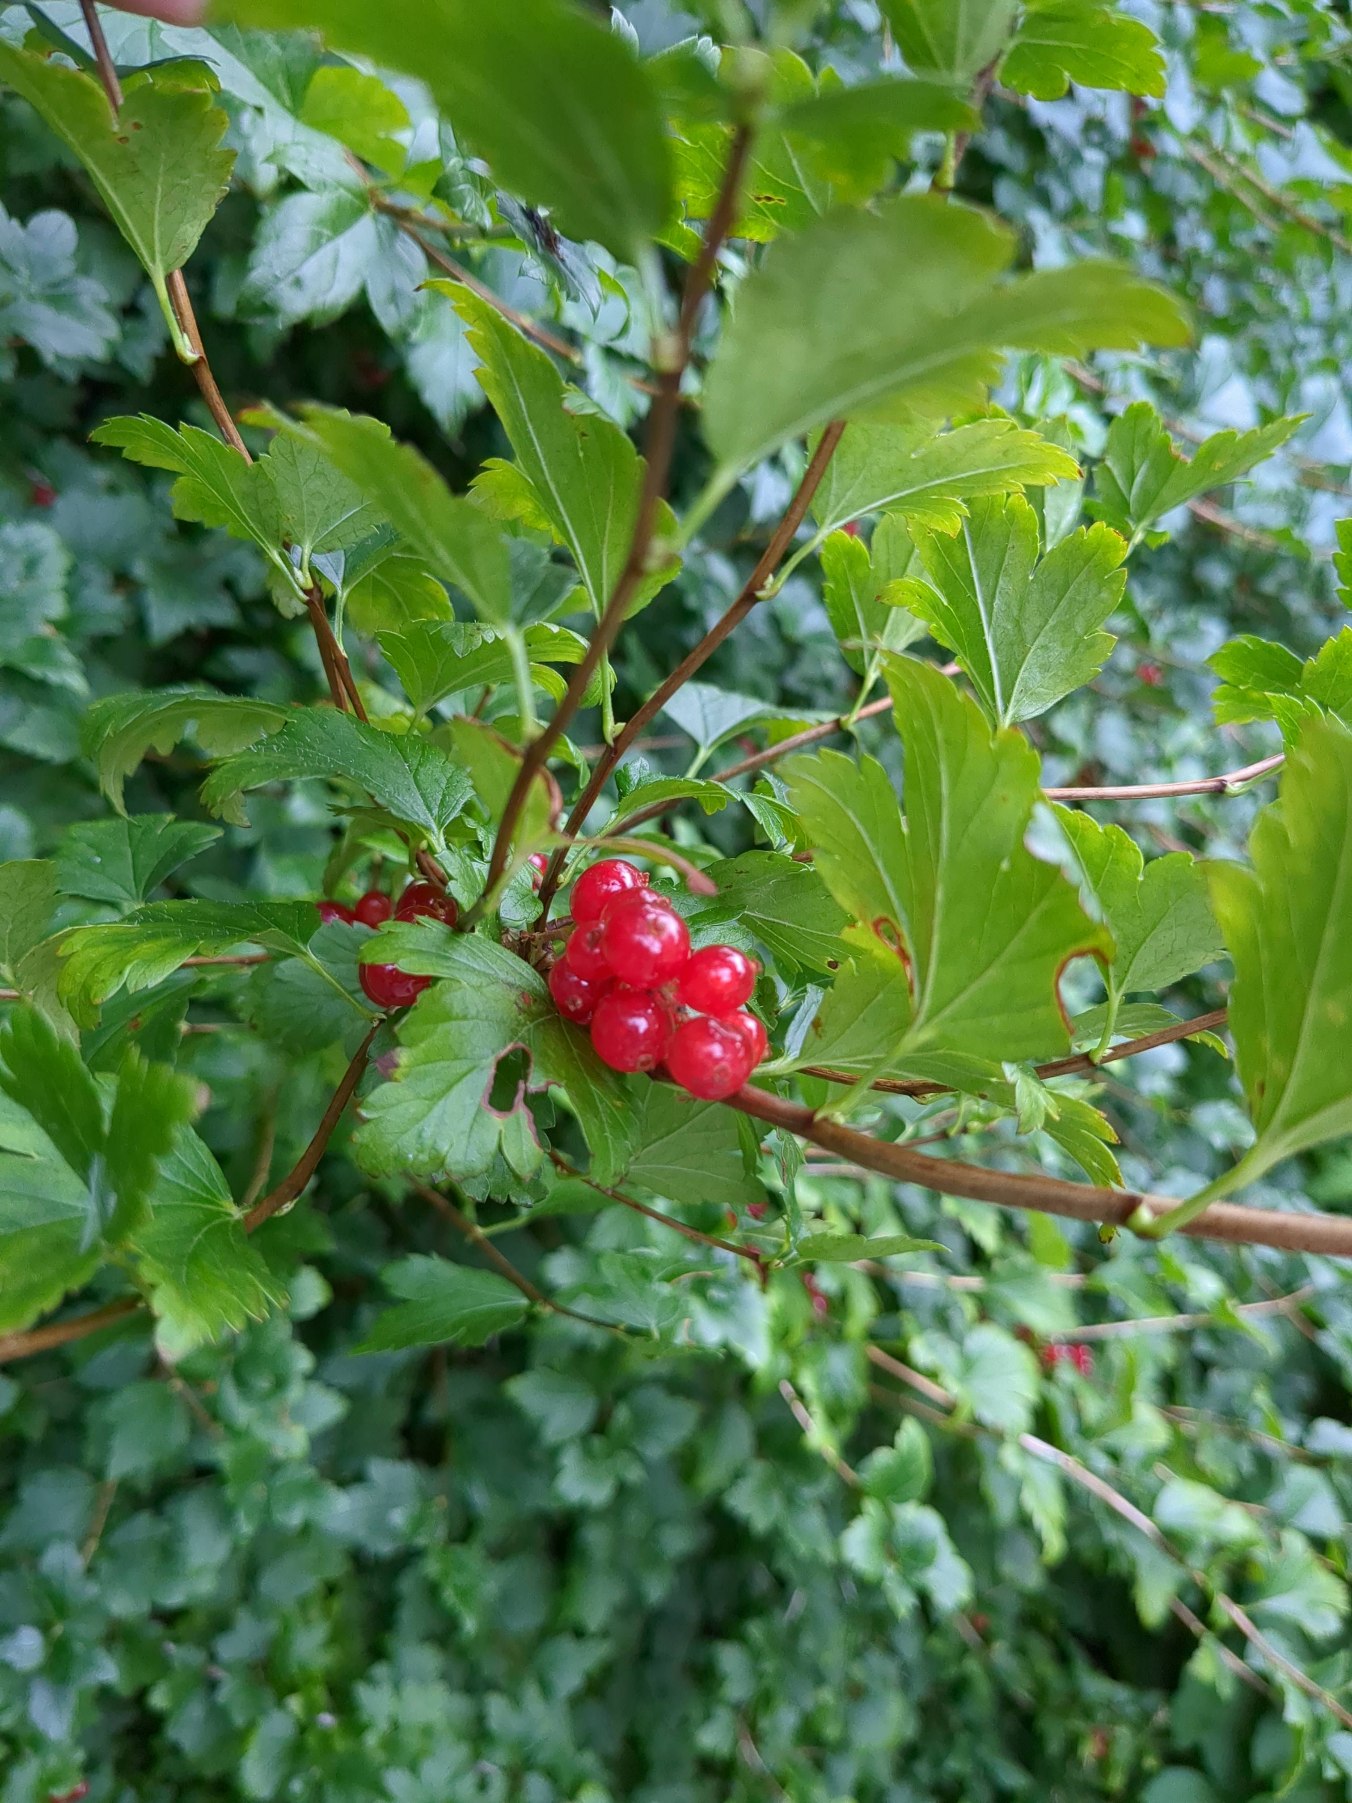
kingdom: Plantae
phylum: Tracheophyta
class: Magnoliopsida
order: Saxifragales
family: Grossulariaceae
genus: Ribes
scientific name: Ribes alpinum
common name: Fjeld-ribs
